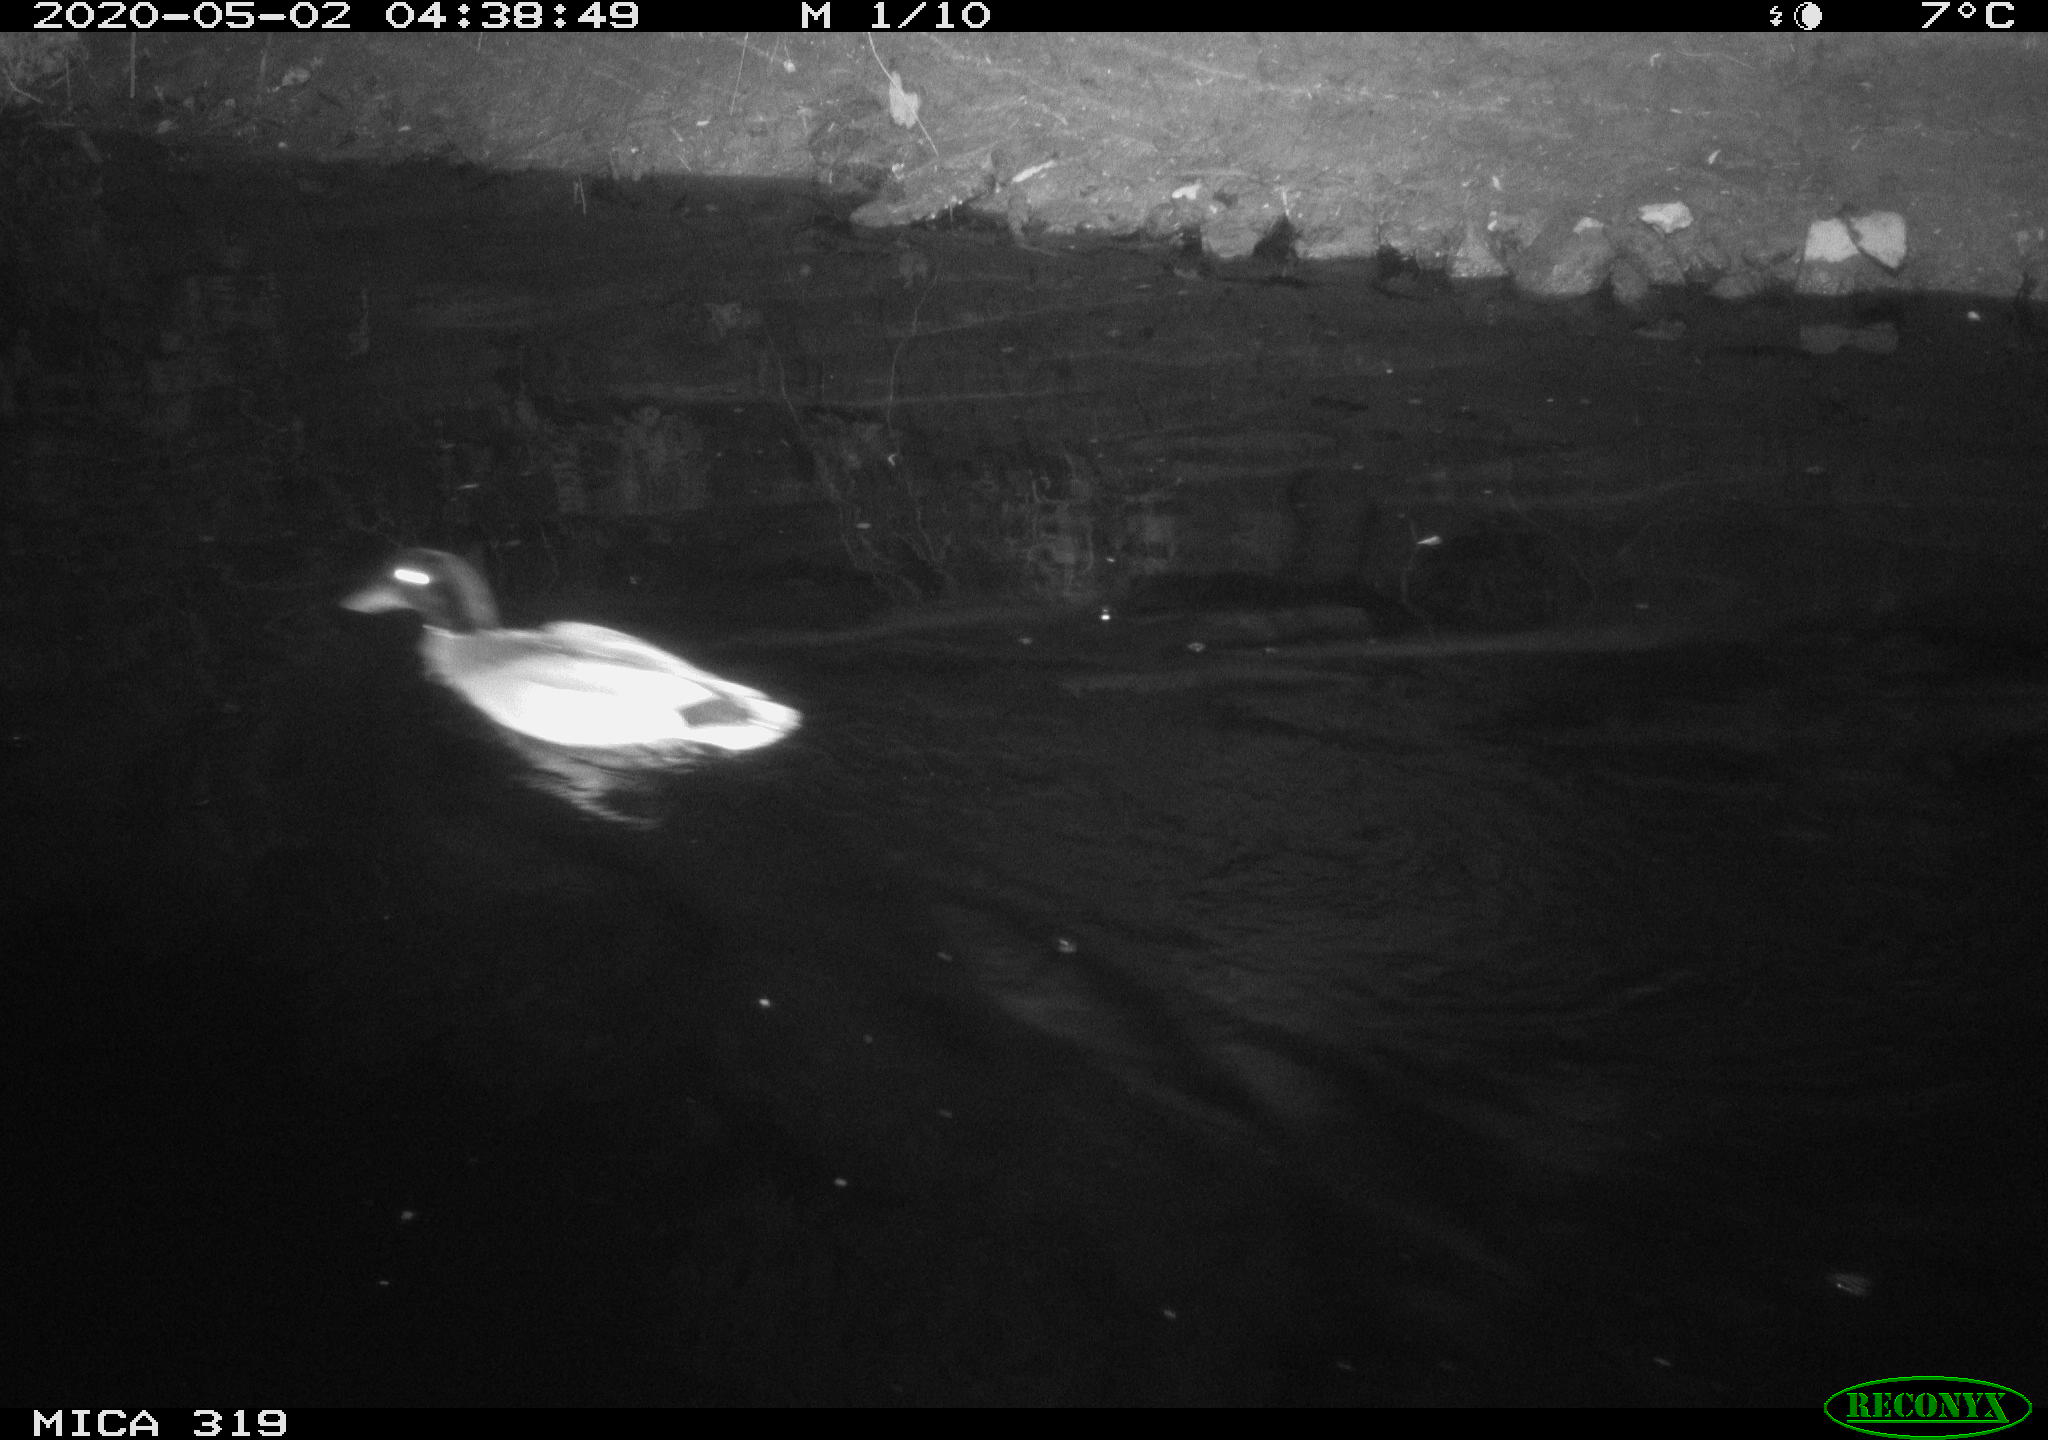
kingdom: Animalia
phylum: Chordata
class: Aves
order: Anseriformes
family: Anatidae
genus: Anas
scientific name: Anas platyrhynchos
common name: Mallard
